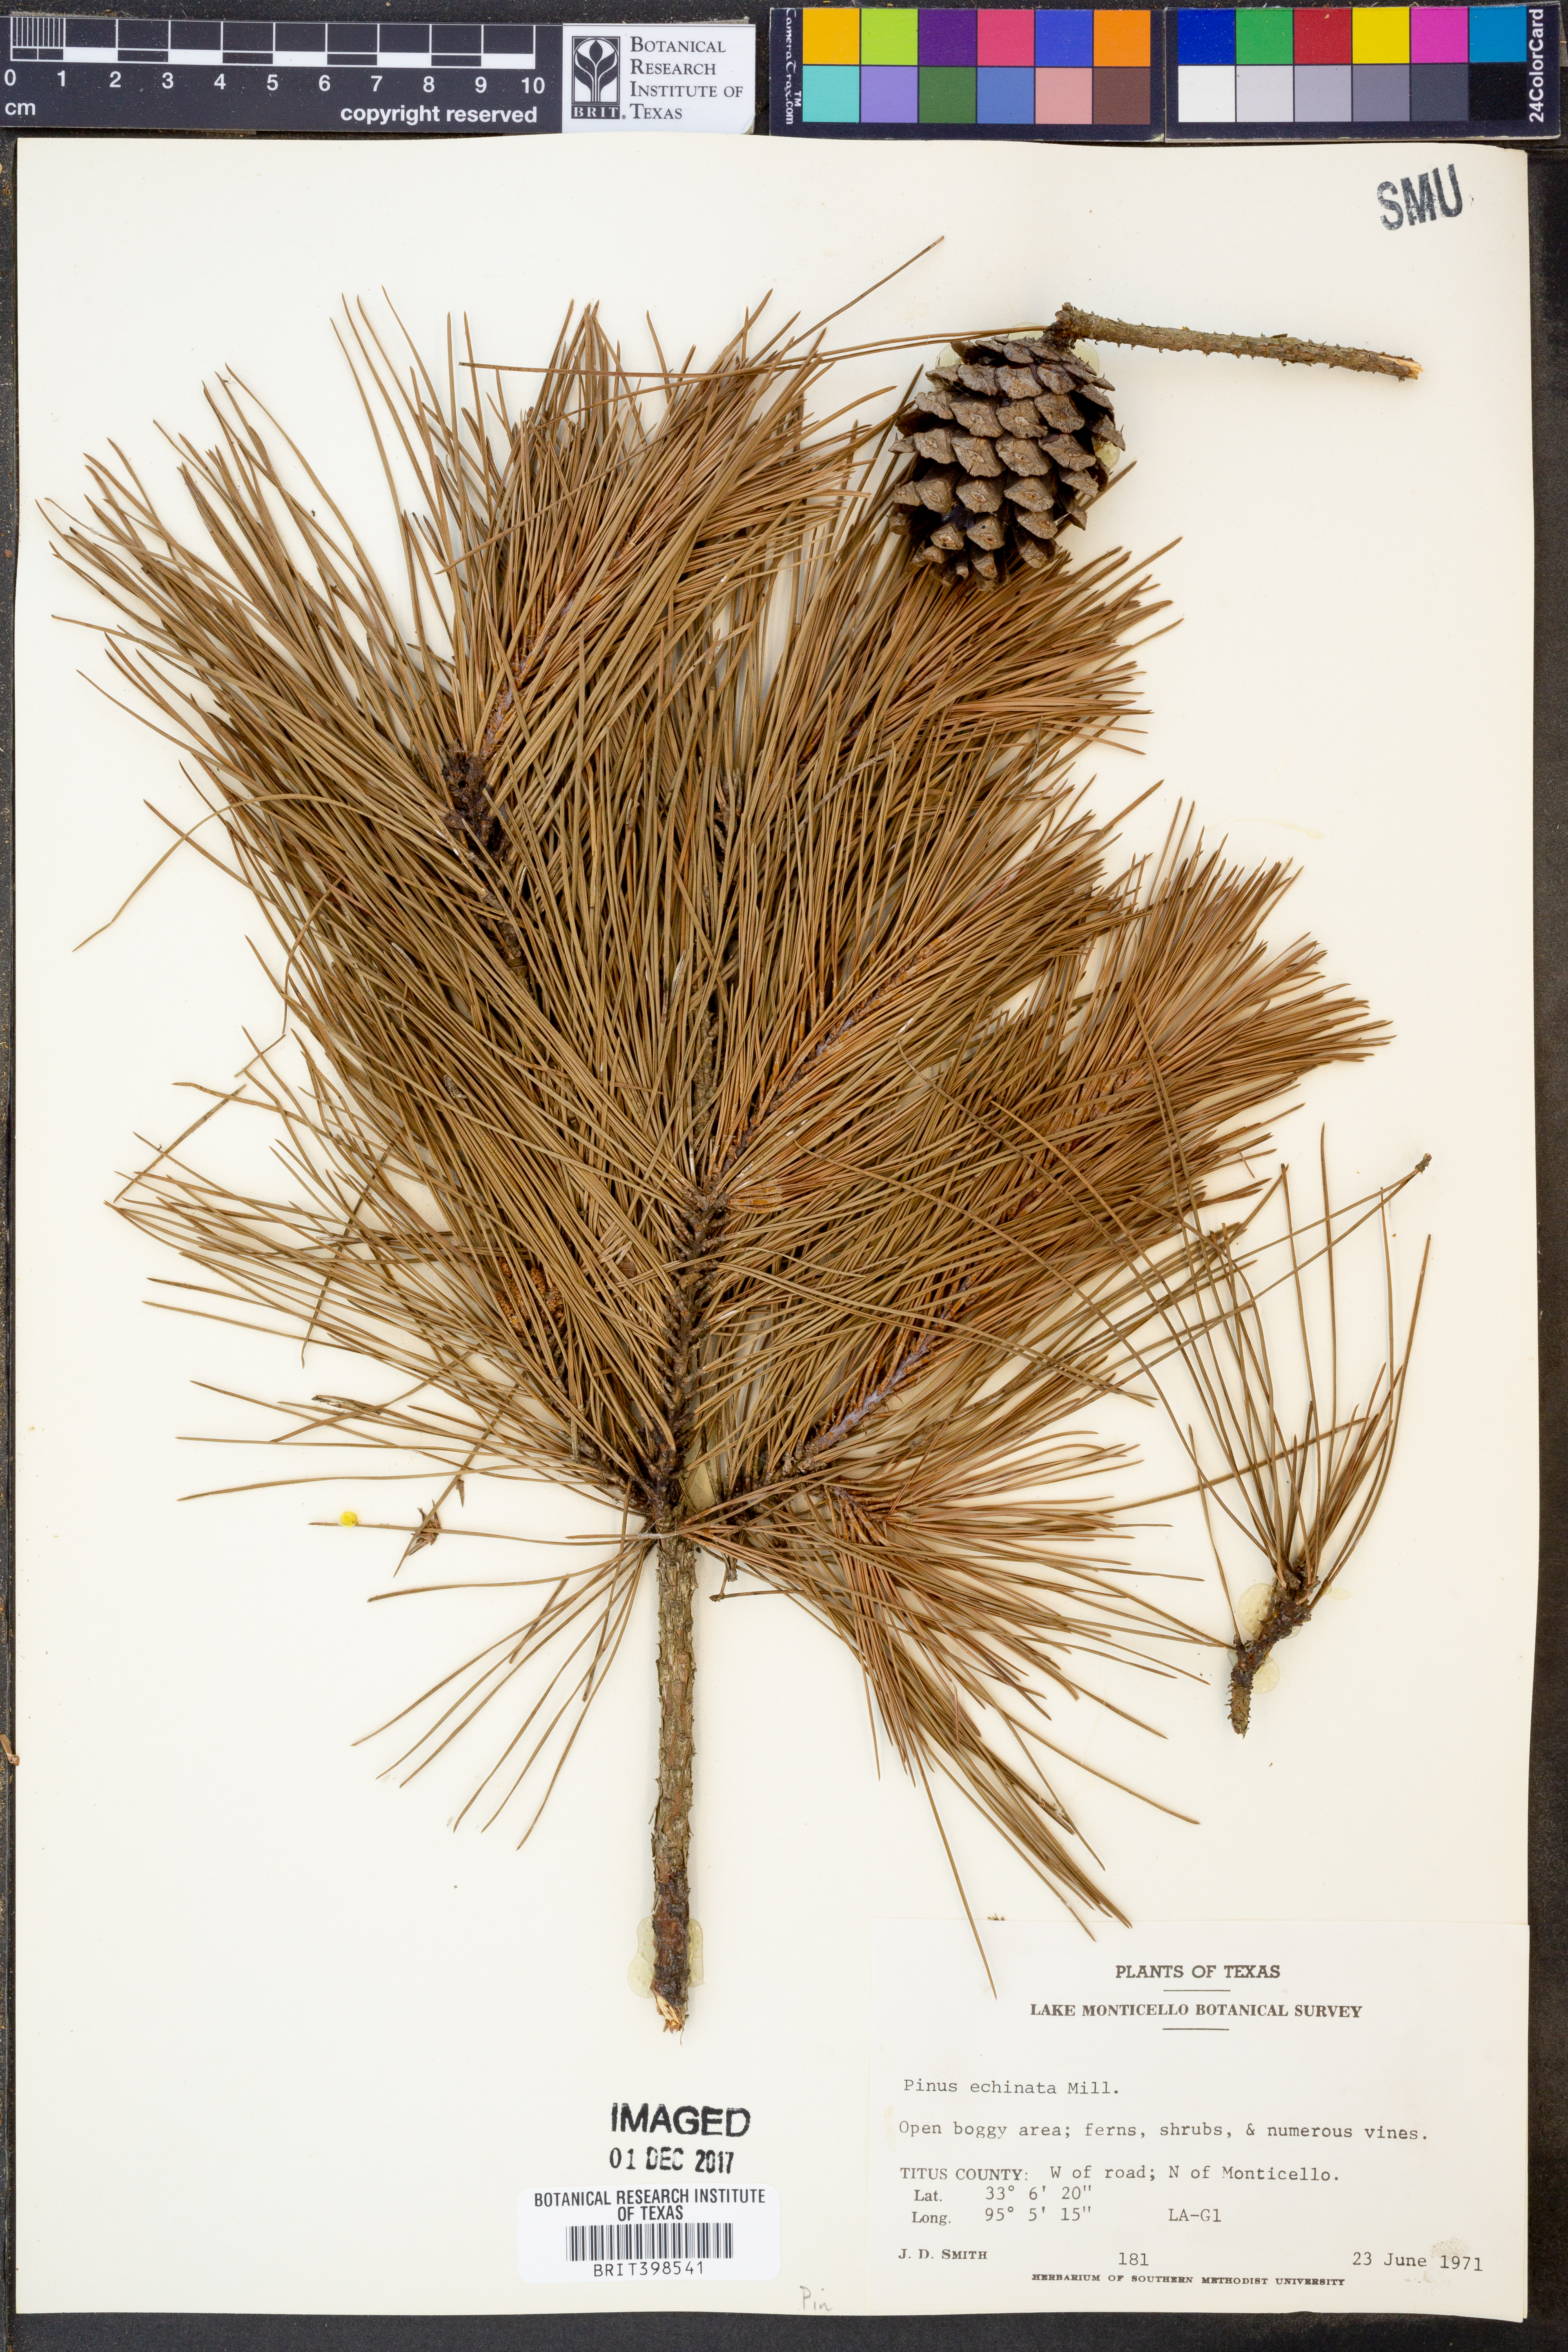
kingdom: Plantae
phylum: Tracheophyta
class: Pinopsida
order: Pinales
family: Pinaceae
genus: Pinus
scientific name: Pinus echinata
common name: Shortleaf pine
